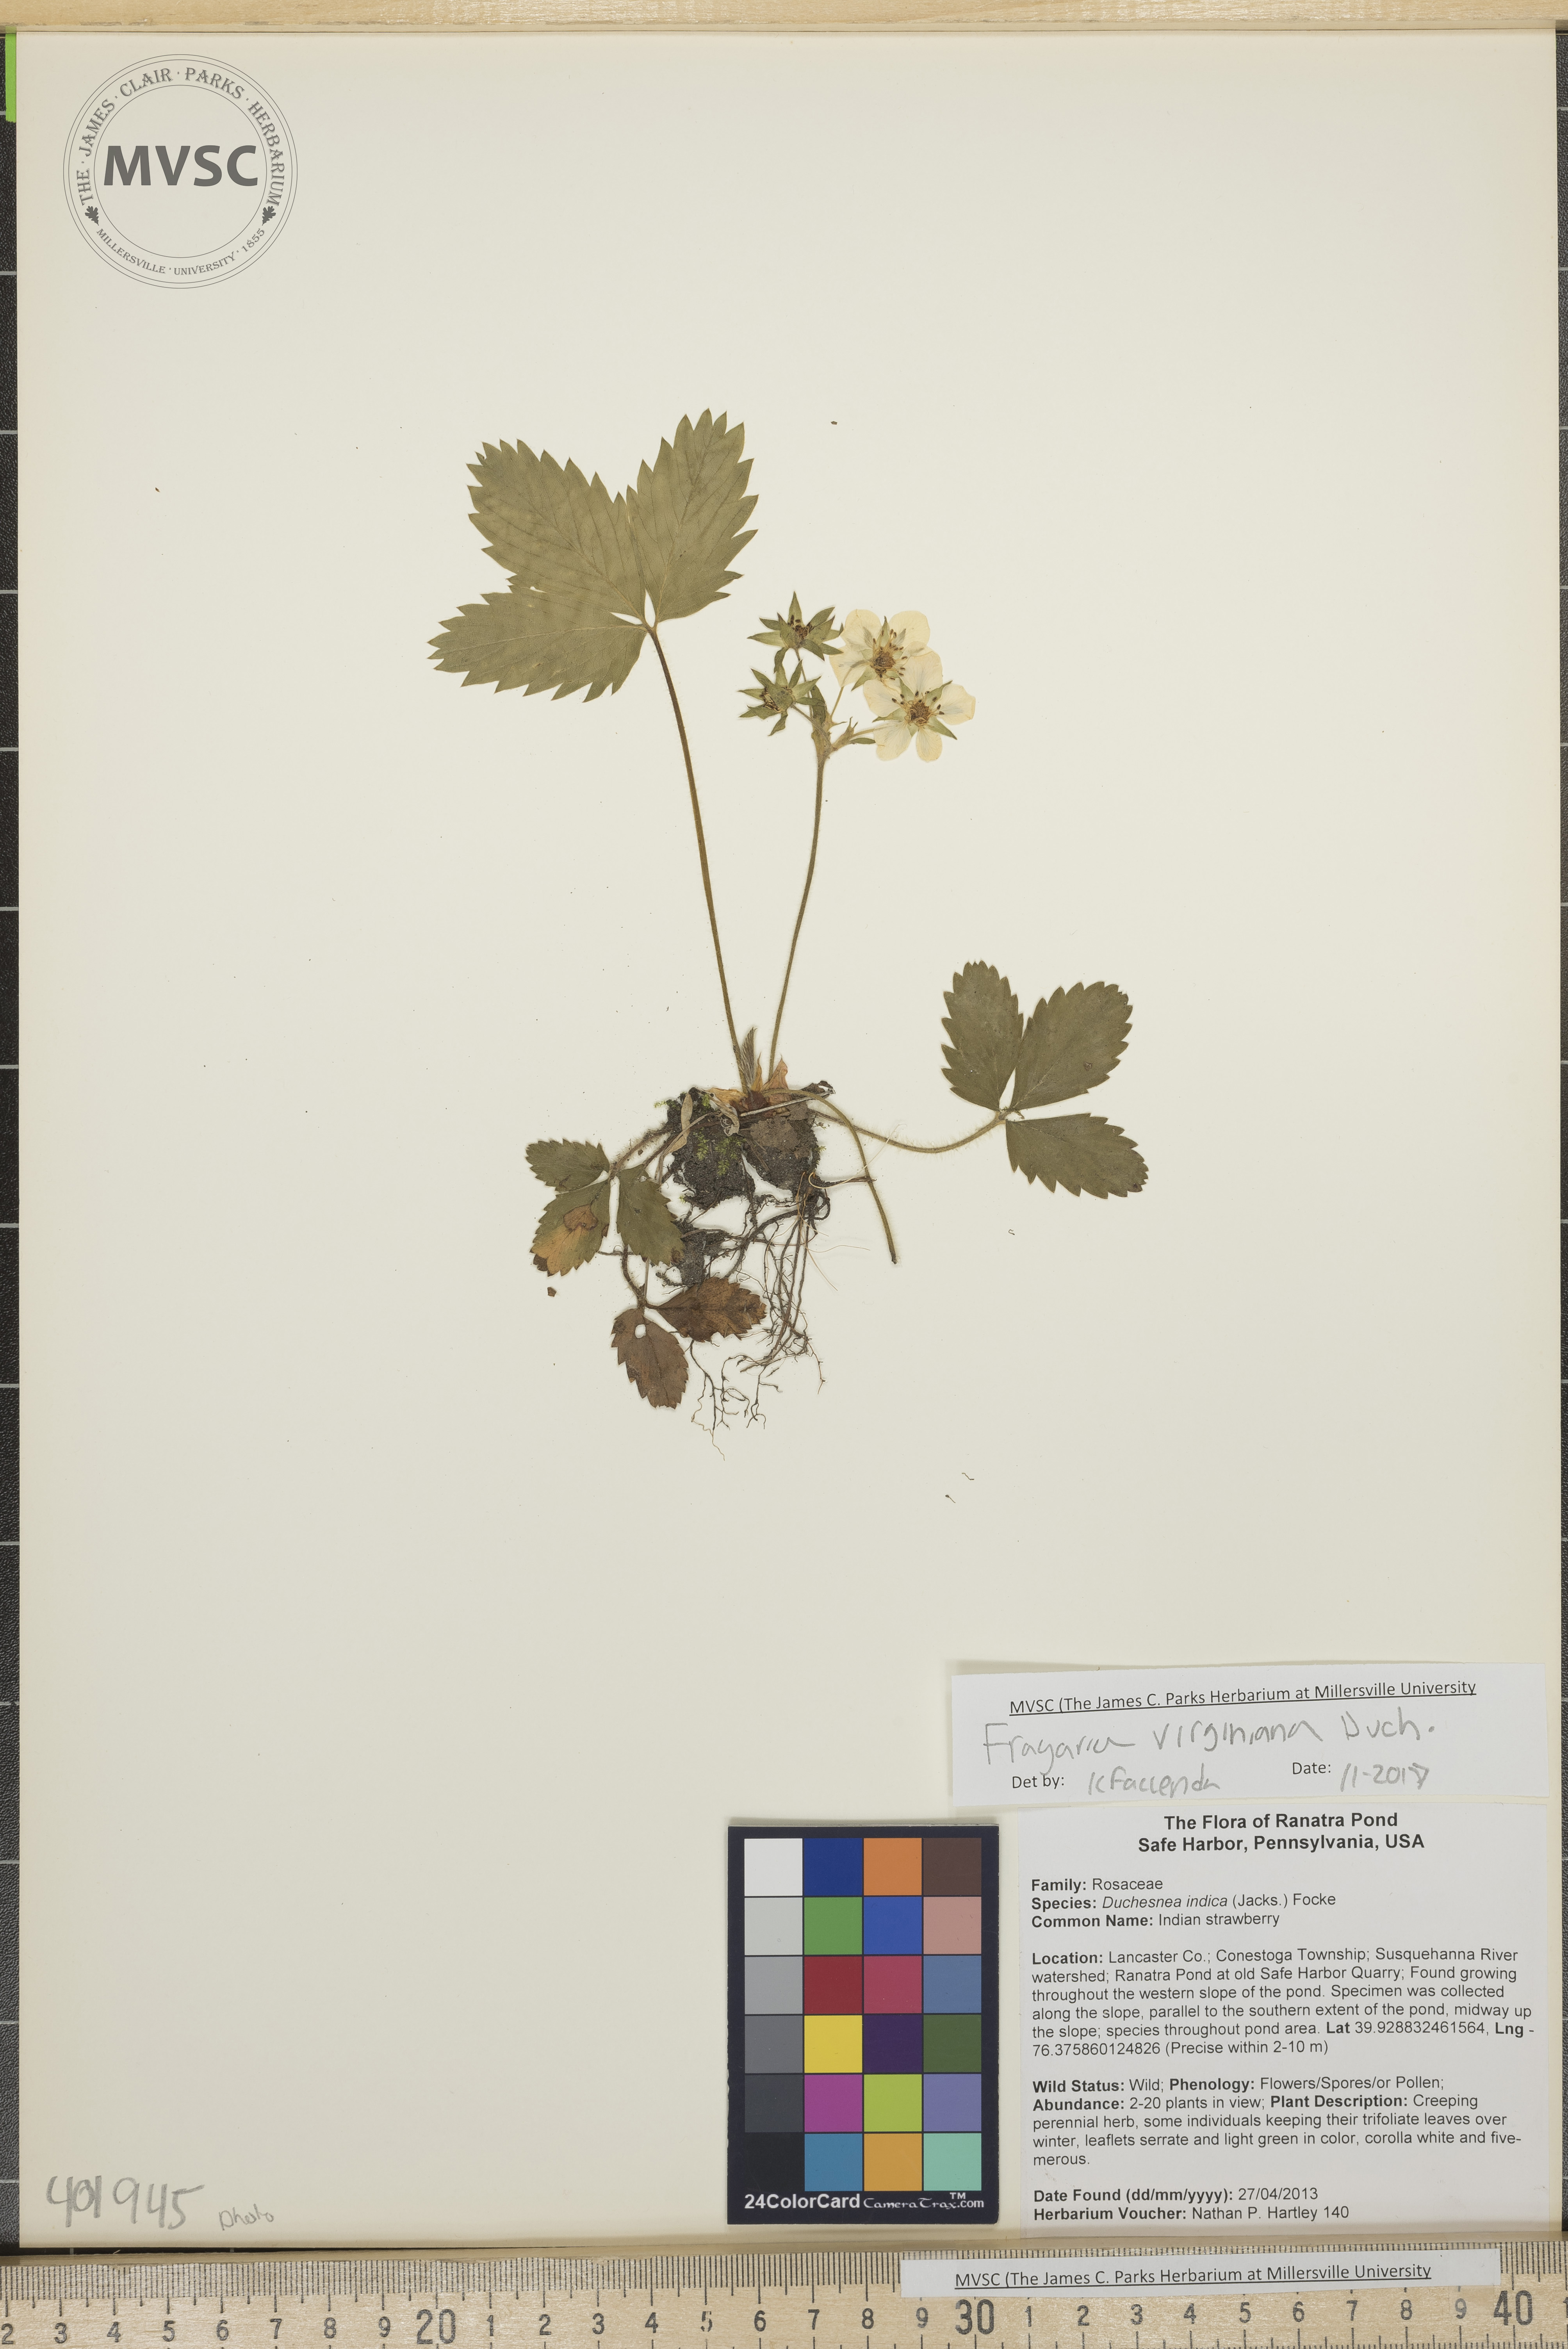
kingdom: Plantae
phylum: Tracheophyta
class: Magnoliopsida
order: Rosales
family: Rosaceae
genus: Fragaria
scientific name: Fragaria virginiana
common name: Strawberry
